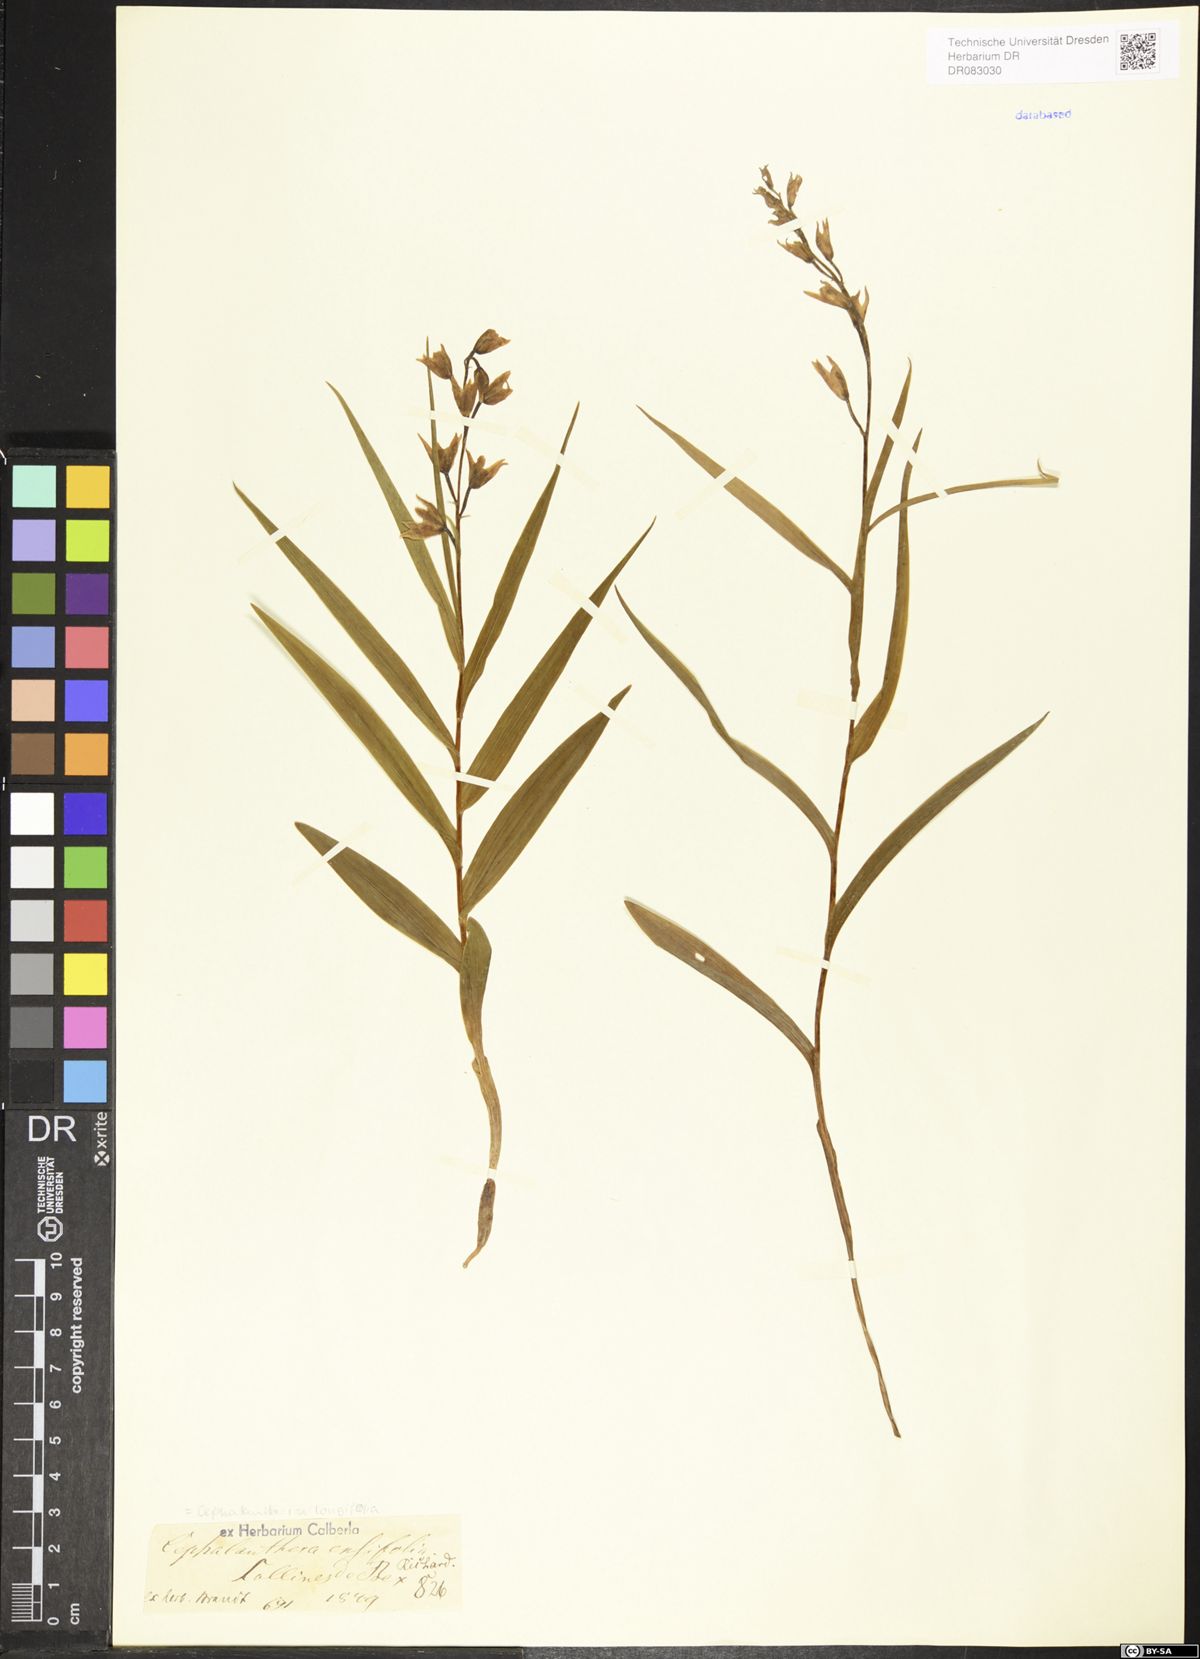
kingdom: Plantae
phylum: Tracheophyta
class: Liliopsida
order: Asparagales
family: Orchidaceae
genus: Cephalanthera
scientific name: Cephalanthera longifolia
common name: Narrow-leaved helleborine
